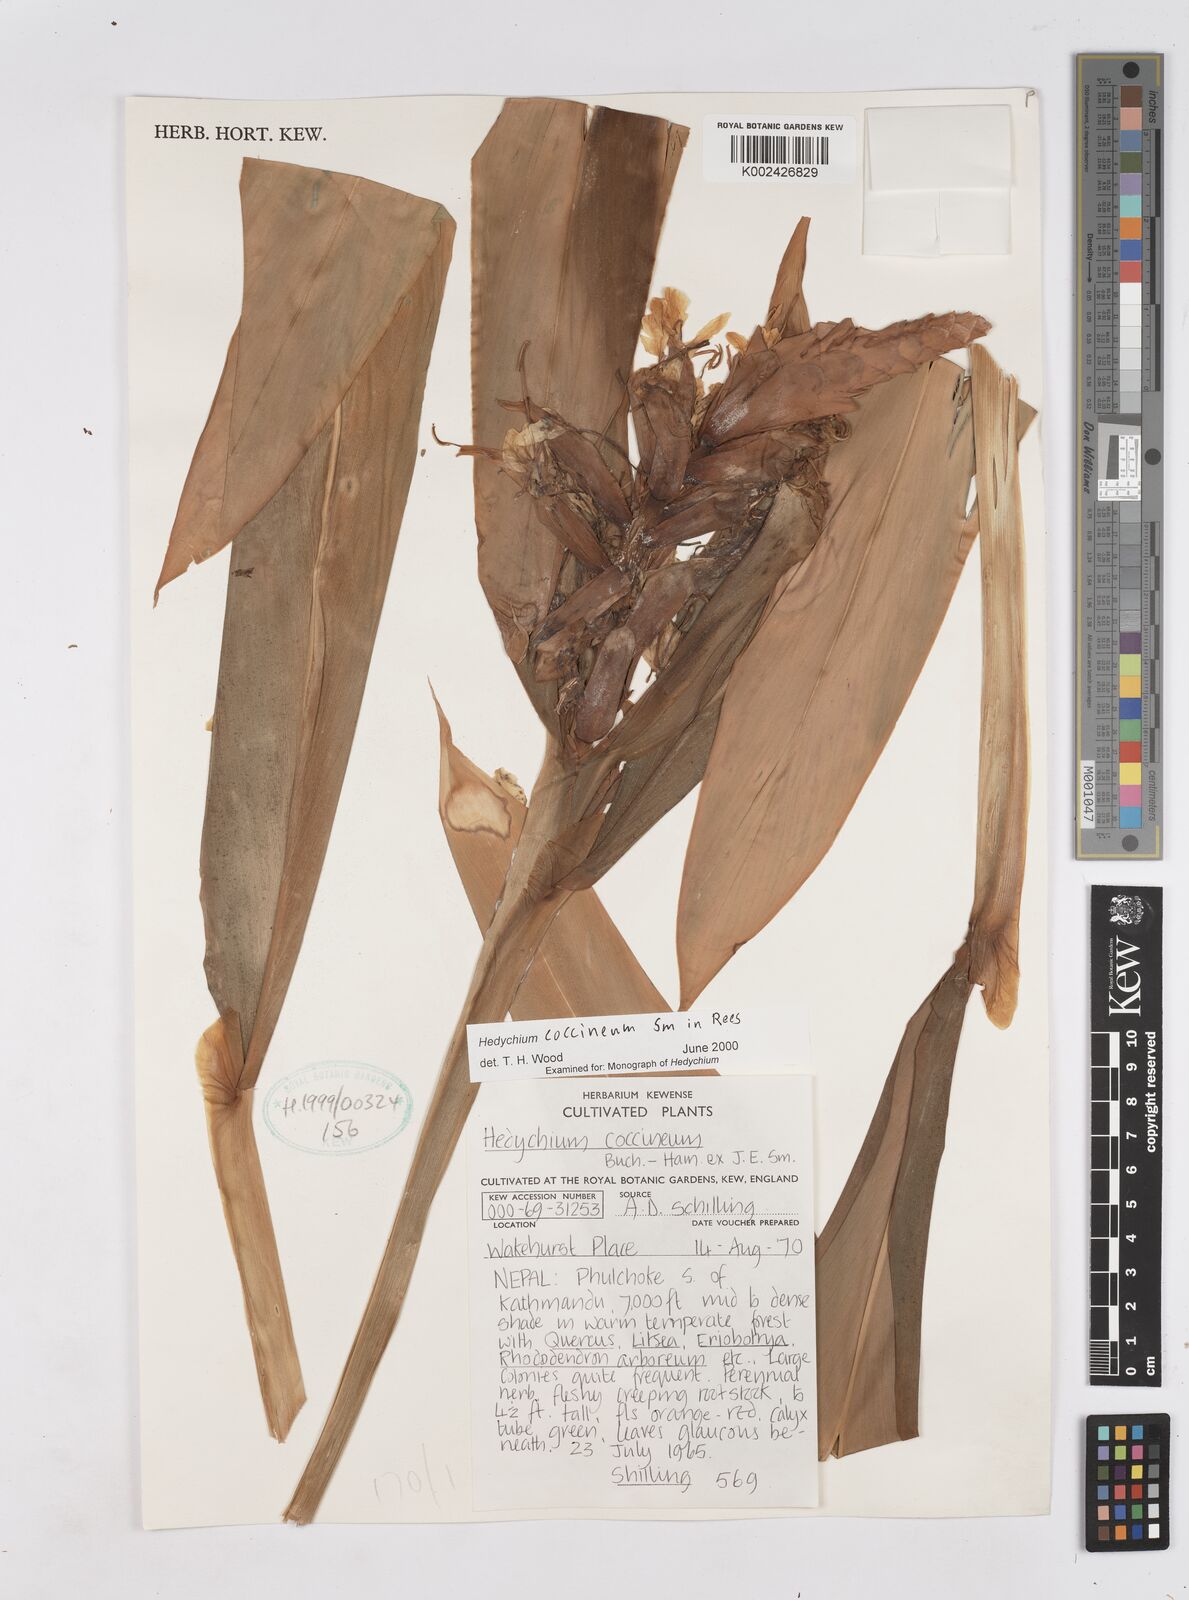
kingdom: Plantae
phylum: Tracheophyta
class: Liliopsida
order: Zingiberales
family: Zingiberaceae
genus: Hedychium
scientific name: Hedychium coccineum
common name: Red ginger-lily
